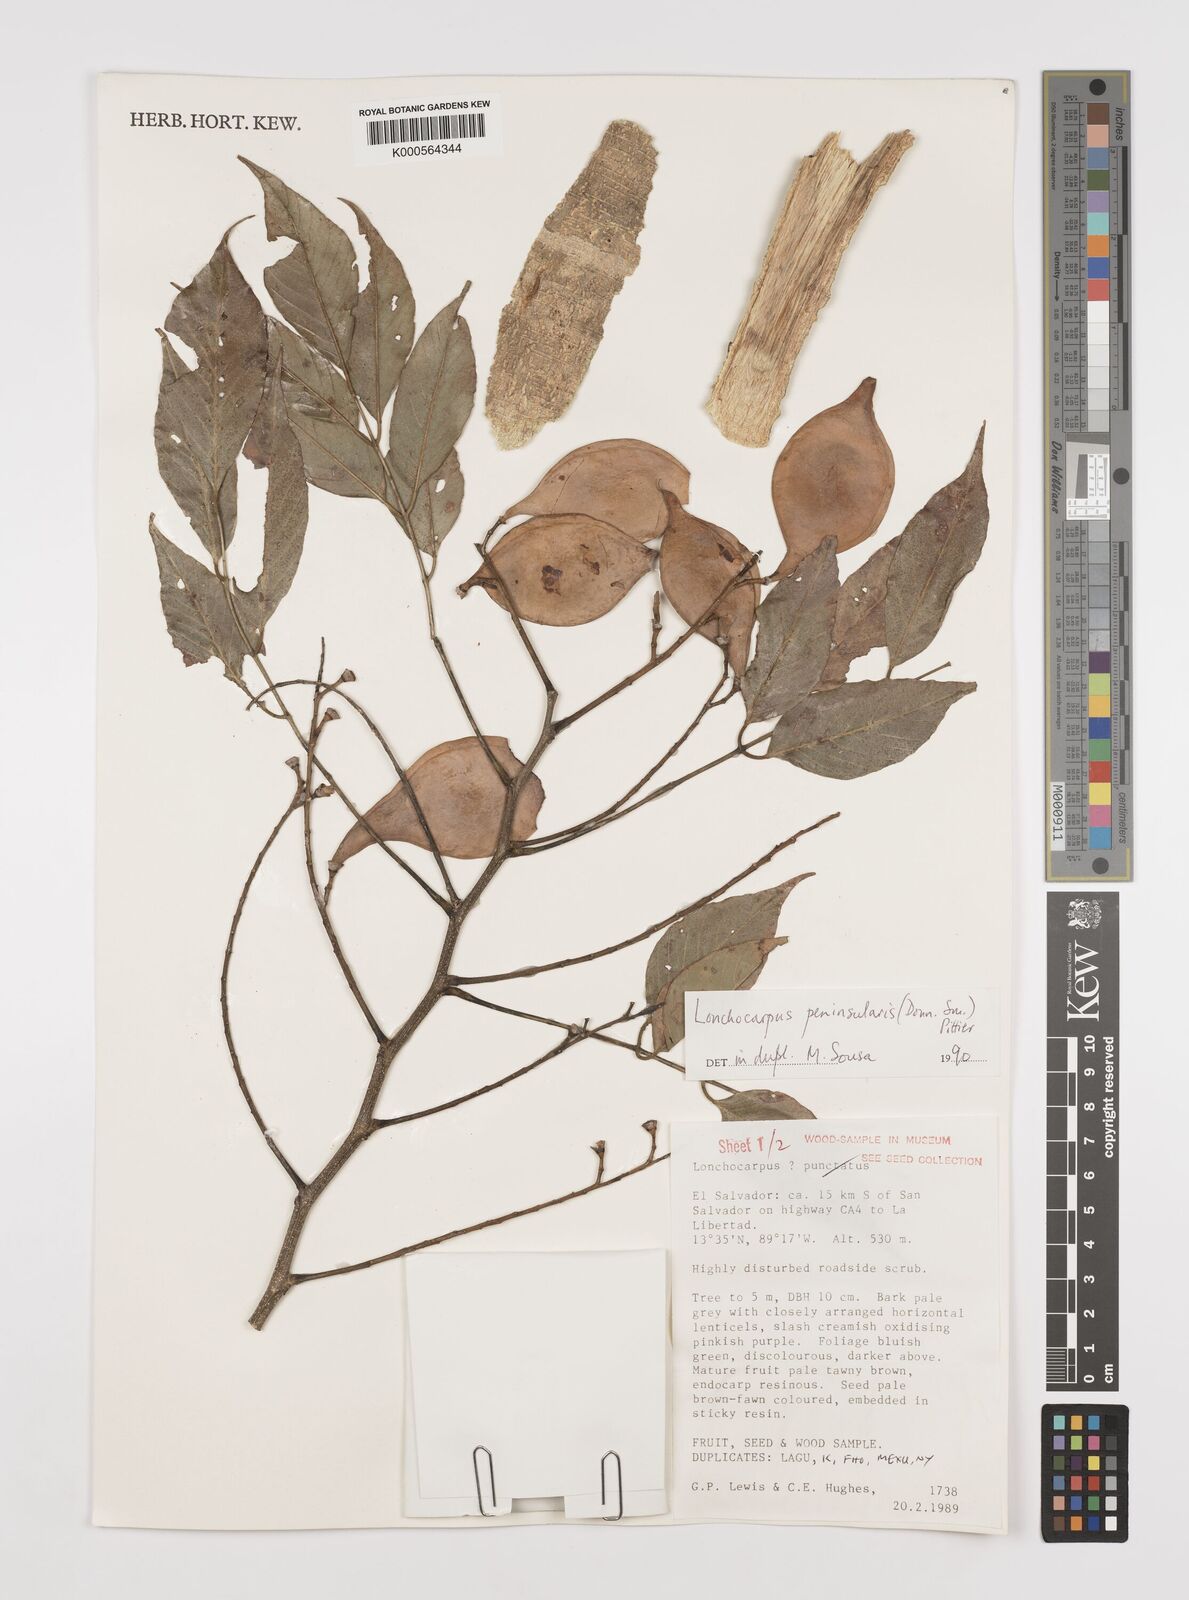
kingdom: Plantae
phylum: Tracheophyta
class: Magnoliopsida
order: Fabales
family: Fabaceae
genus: Lonchocarpus
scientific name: Lonchocarpus acuminatus
